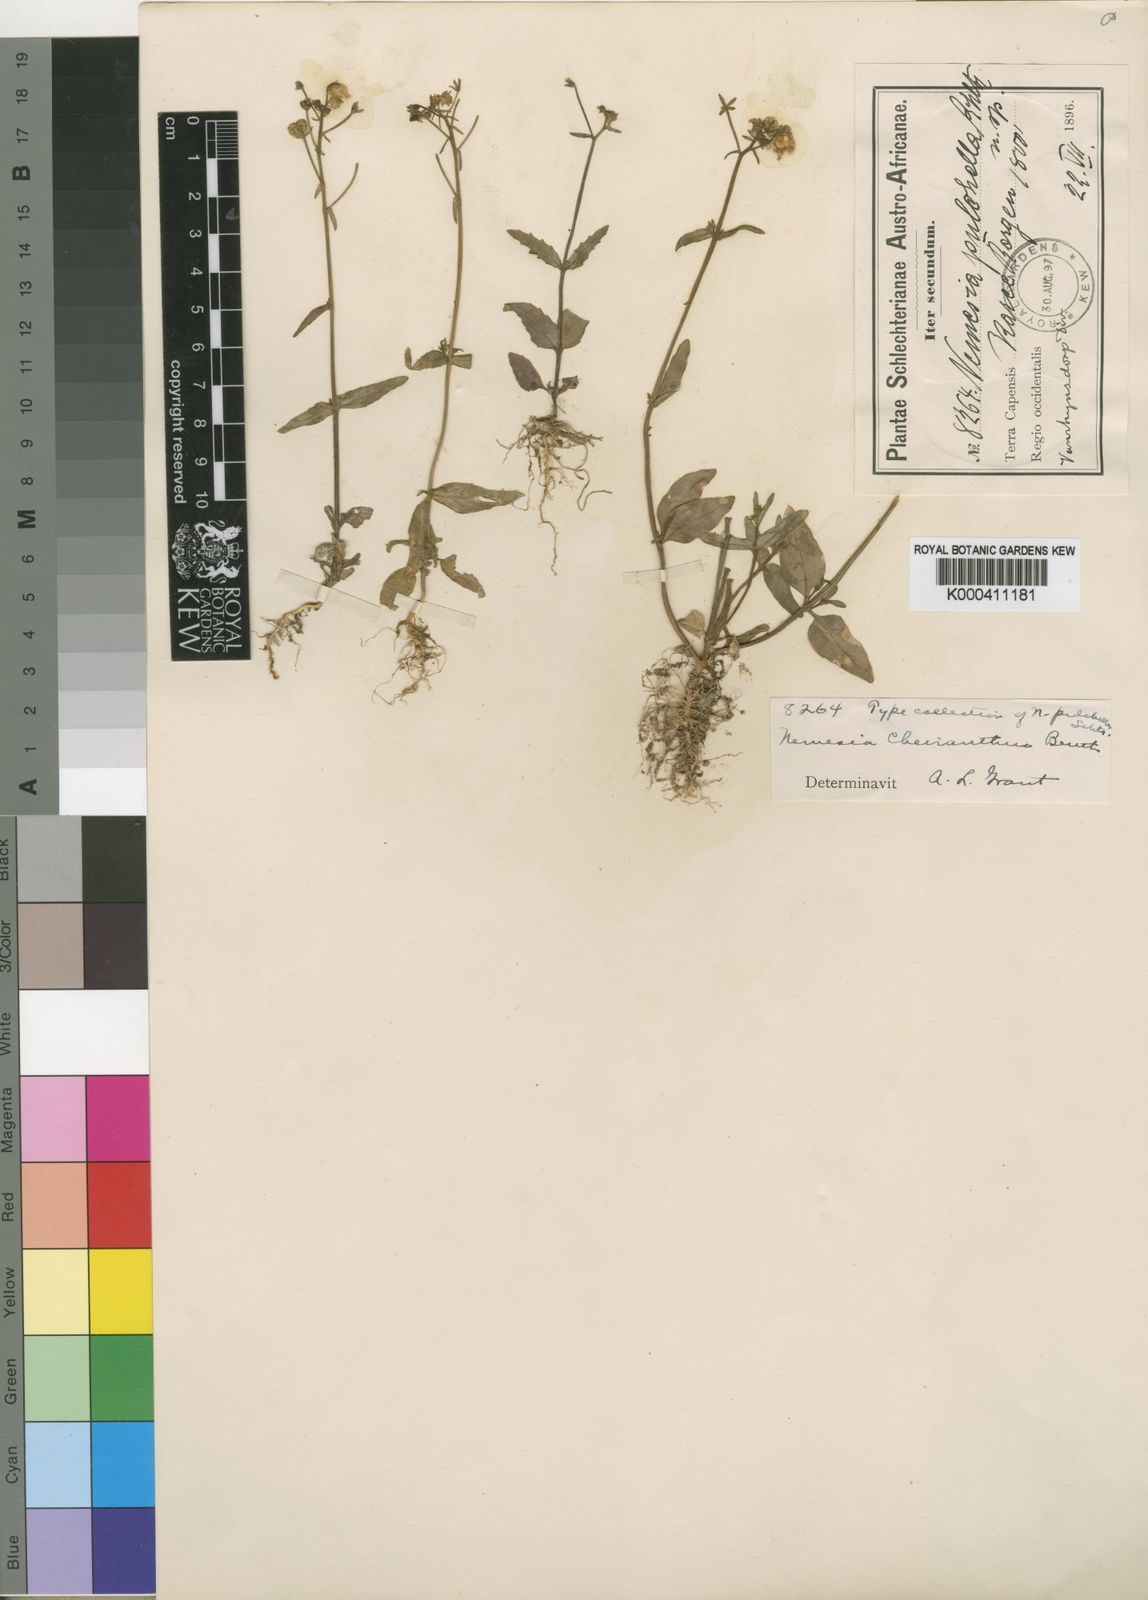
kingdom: Plantae
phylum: Tracheophyta
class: Magnoliopsida
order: Lamiales
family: Scrophulariaceae
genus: Nemesia
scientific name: Nemesia cheiranthus
